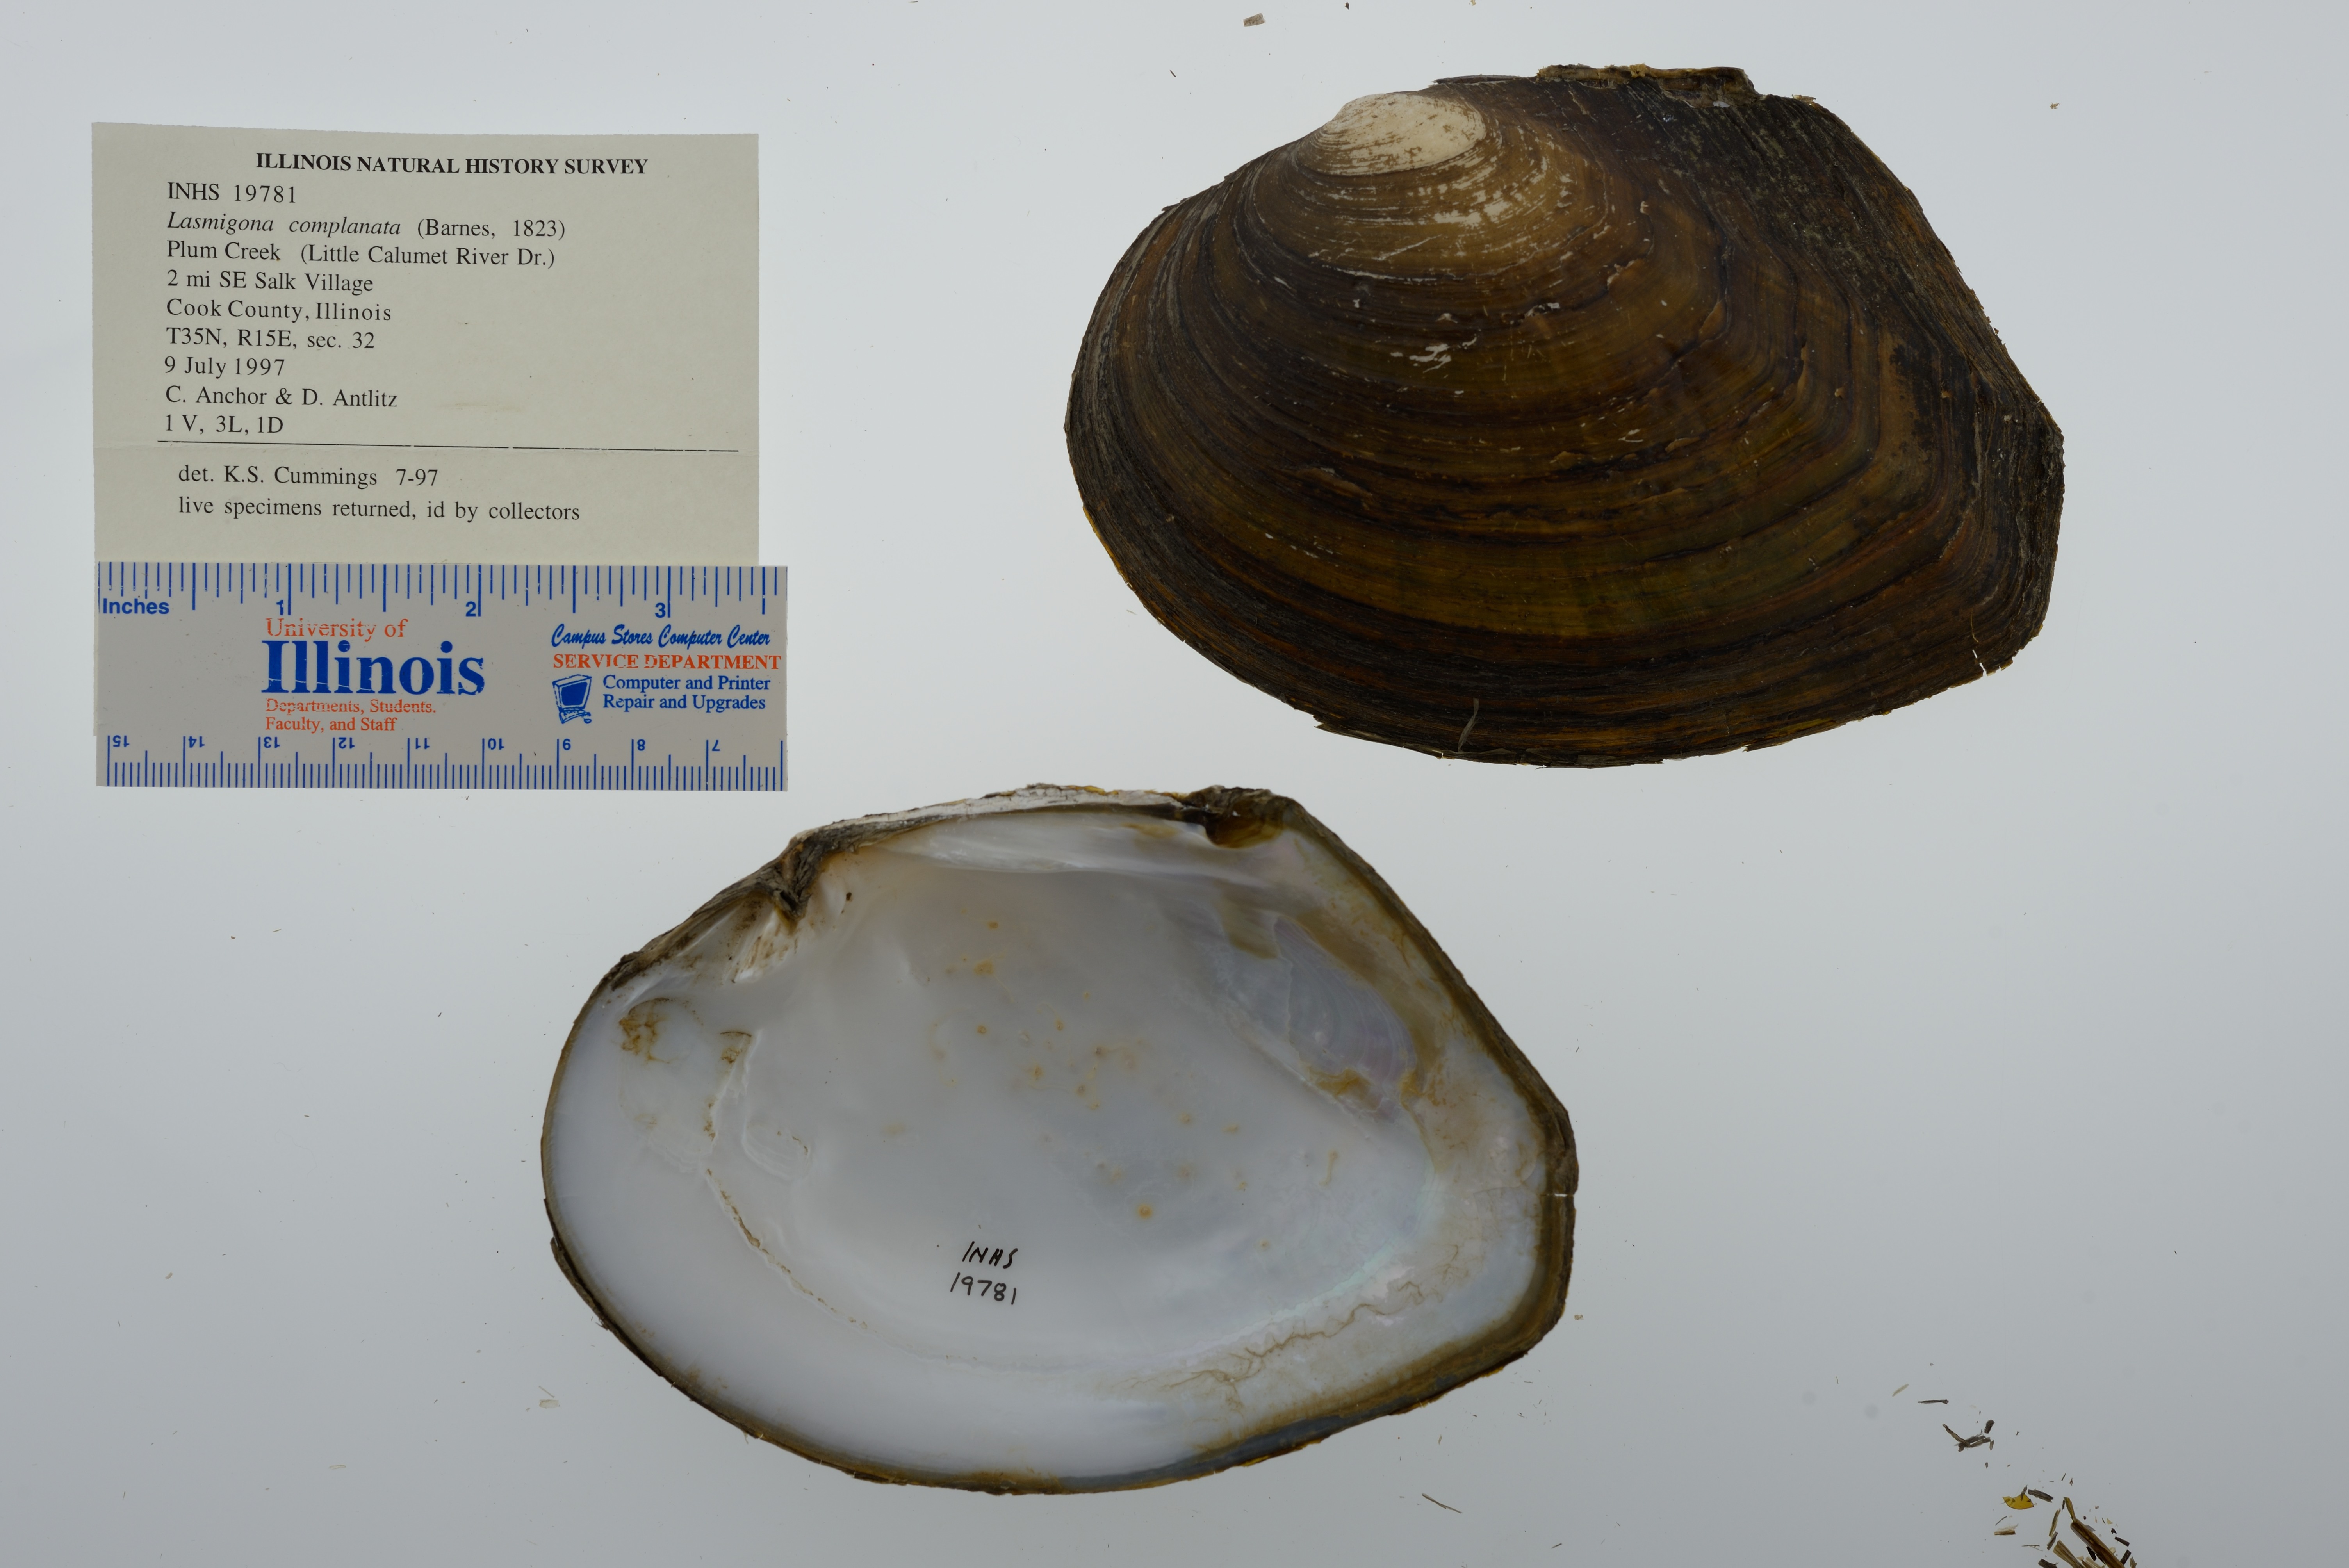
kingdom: Animalia
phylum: Mollusca
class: Bivalvia
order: Unionida
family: Unionidae
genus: Lasmigona
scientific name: Lasmigona complanata
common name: White heelsplitter
